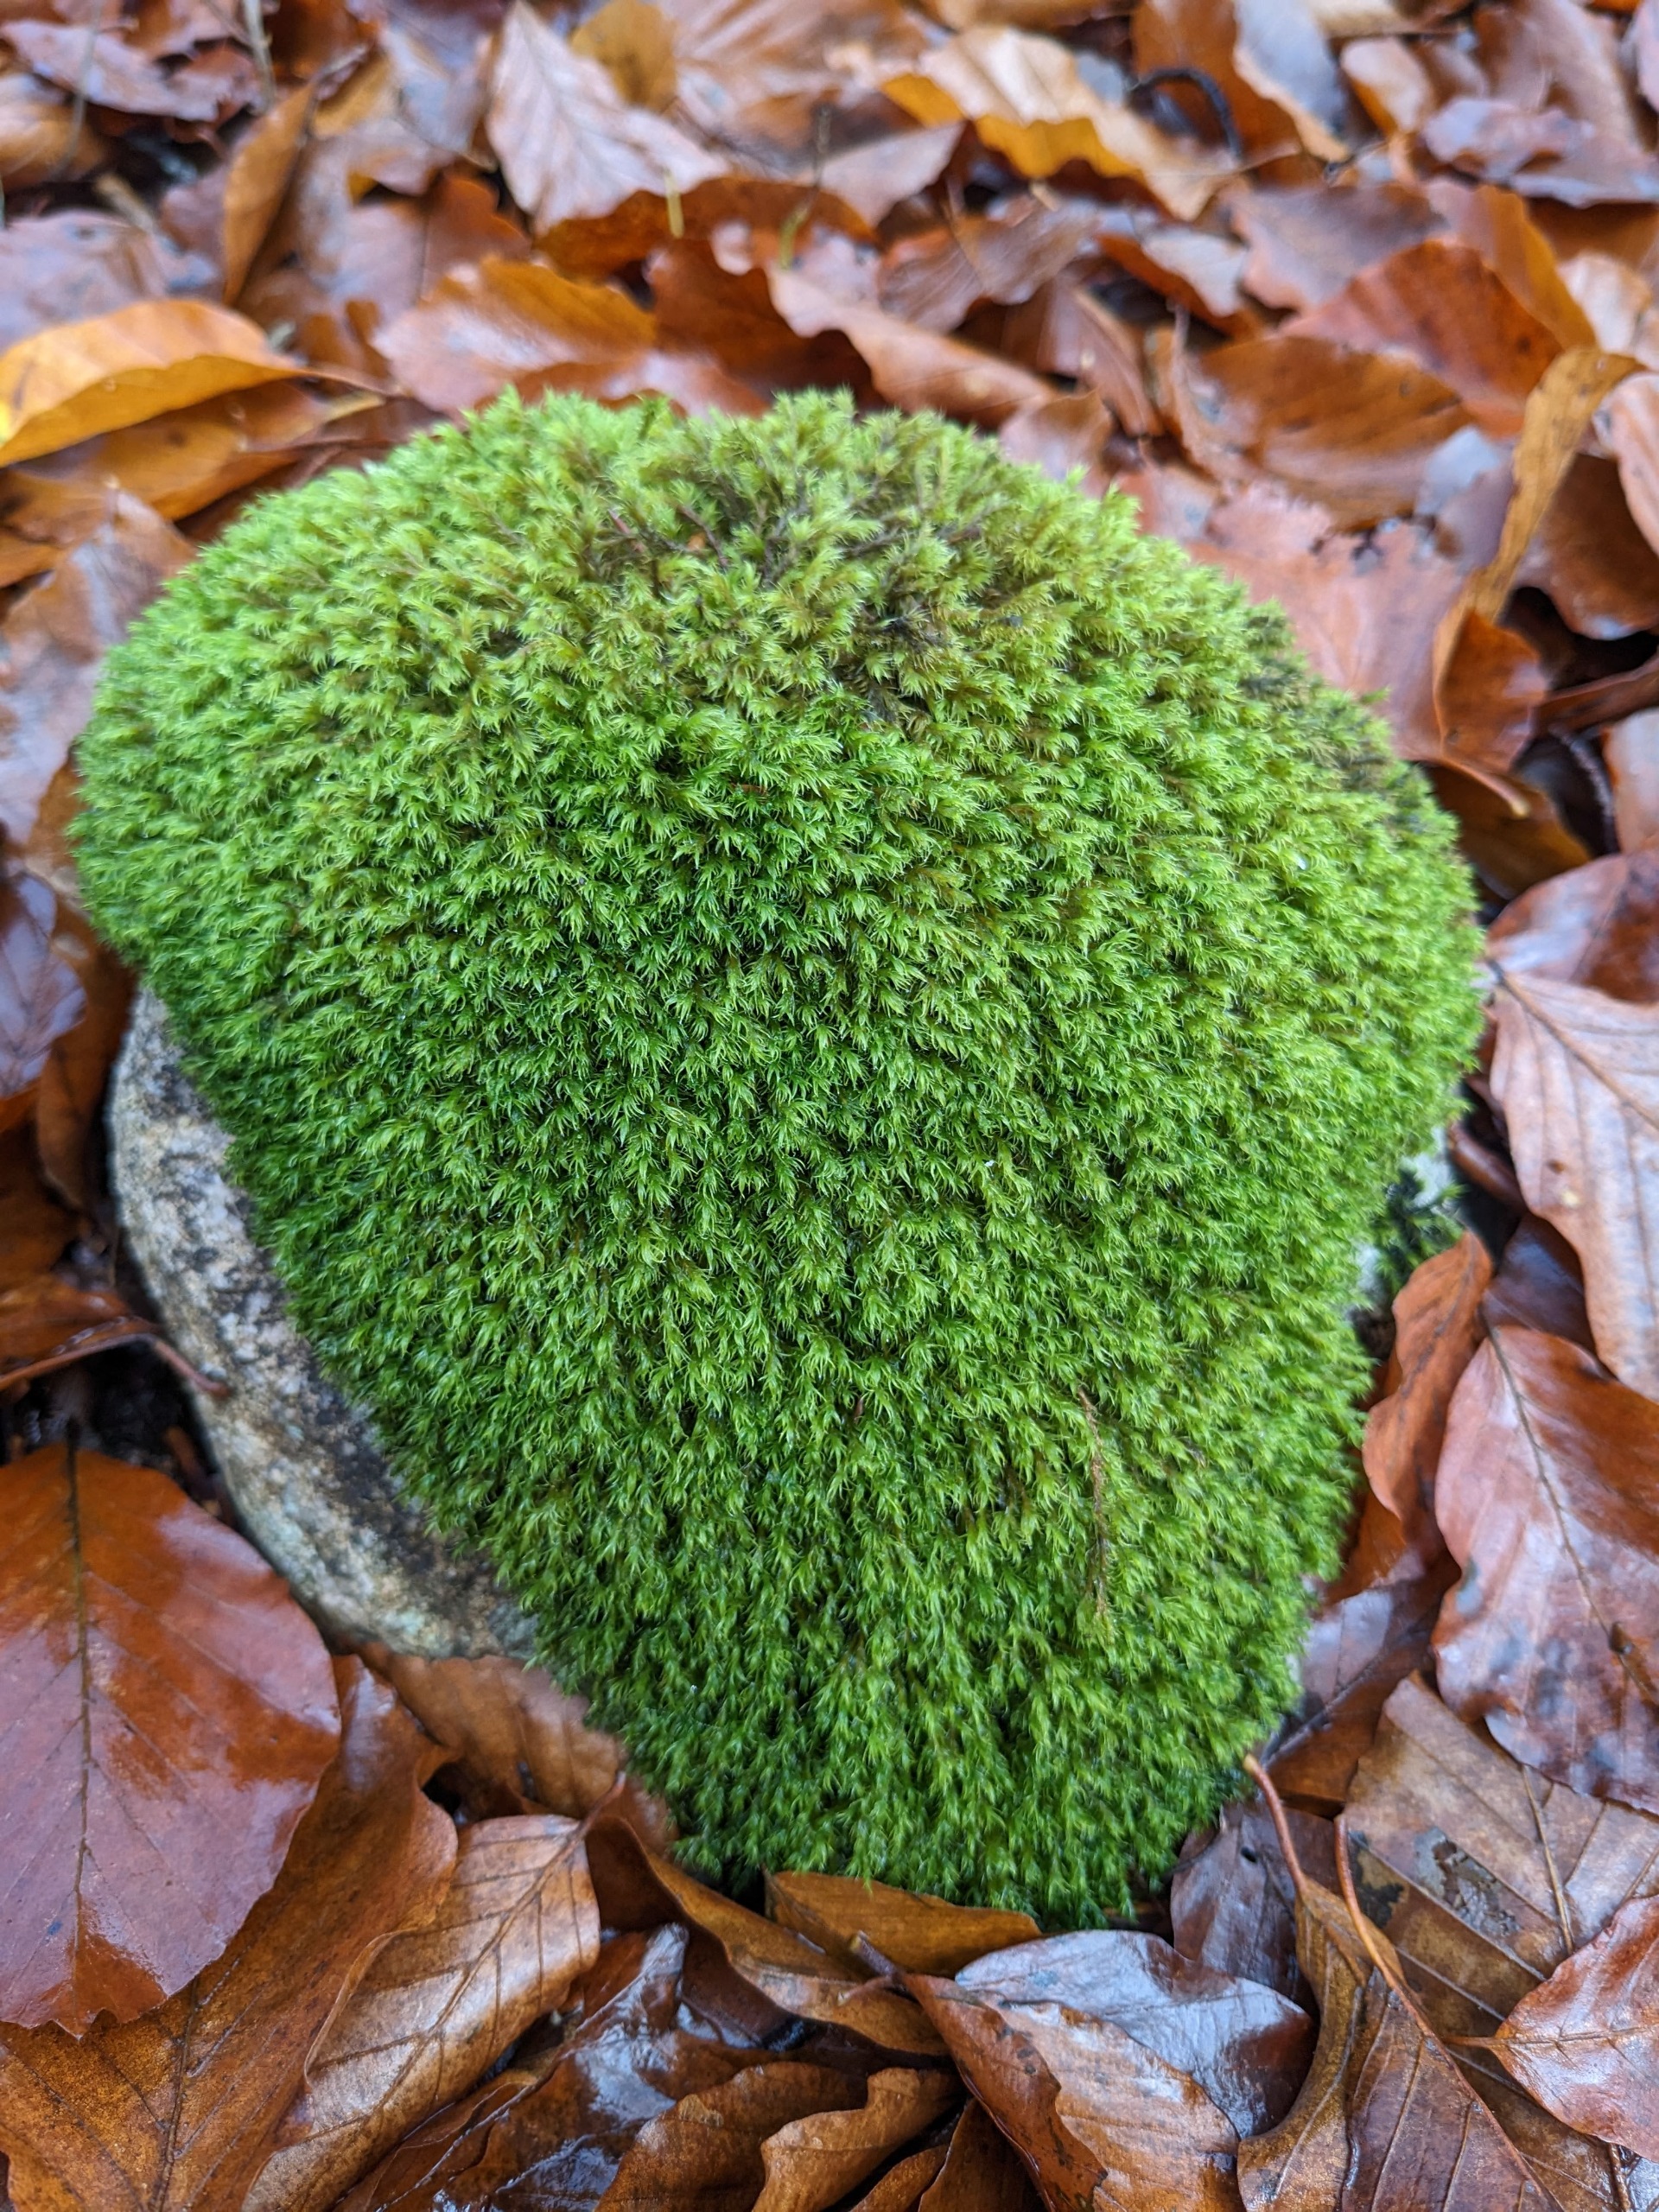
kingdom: Plantae
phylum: Bryophyta
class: Bryopsida
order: Grimmiales
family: Grimmiaceae
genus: Grimmia
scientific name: Grimmia hartmanii
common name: Hartmans gråmos
